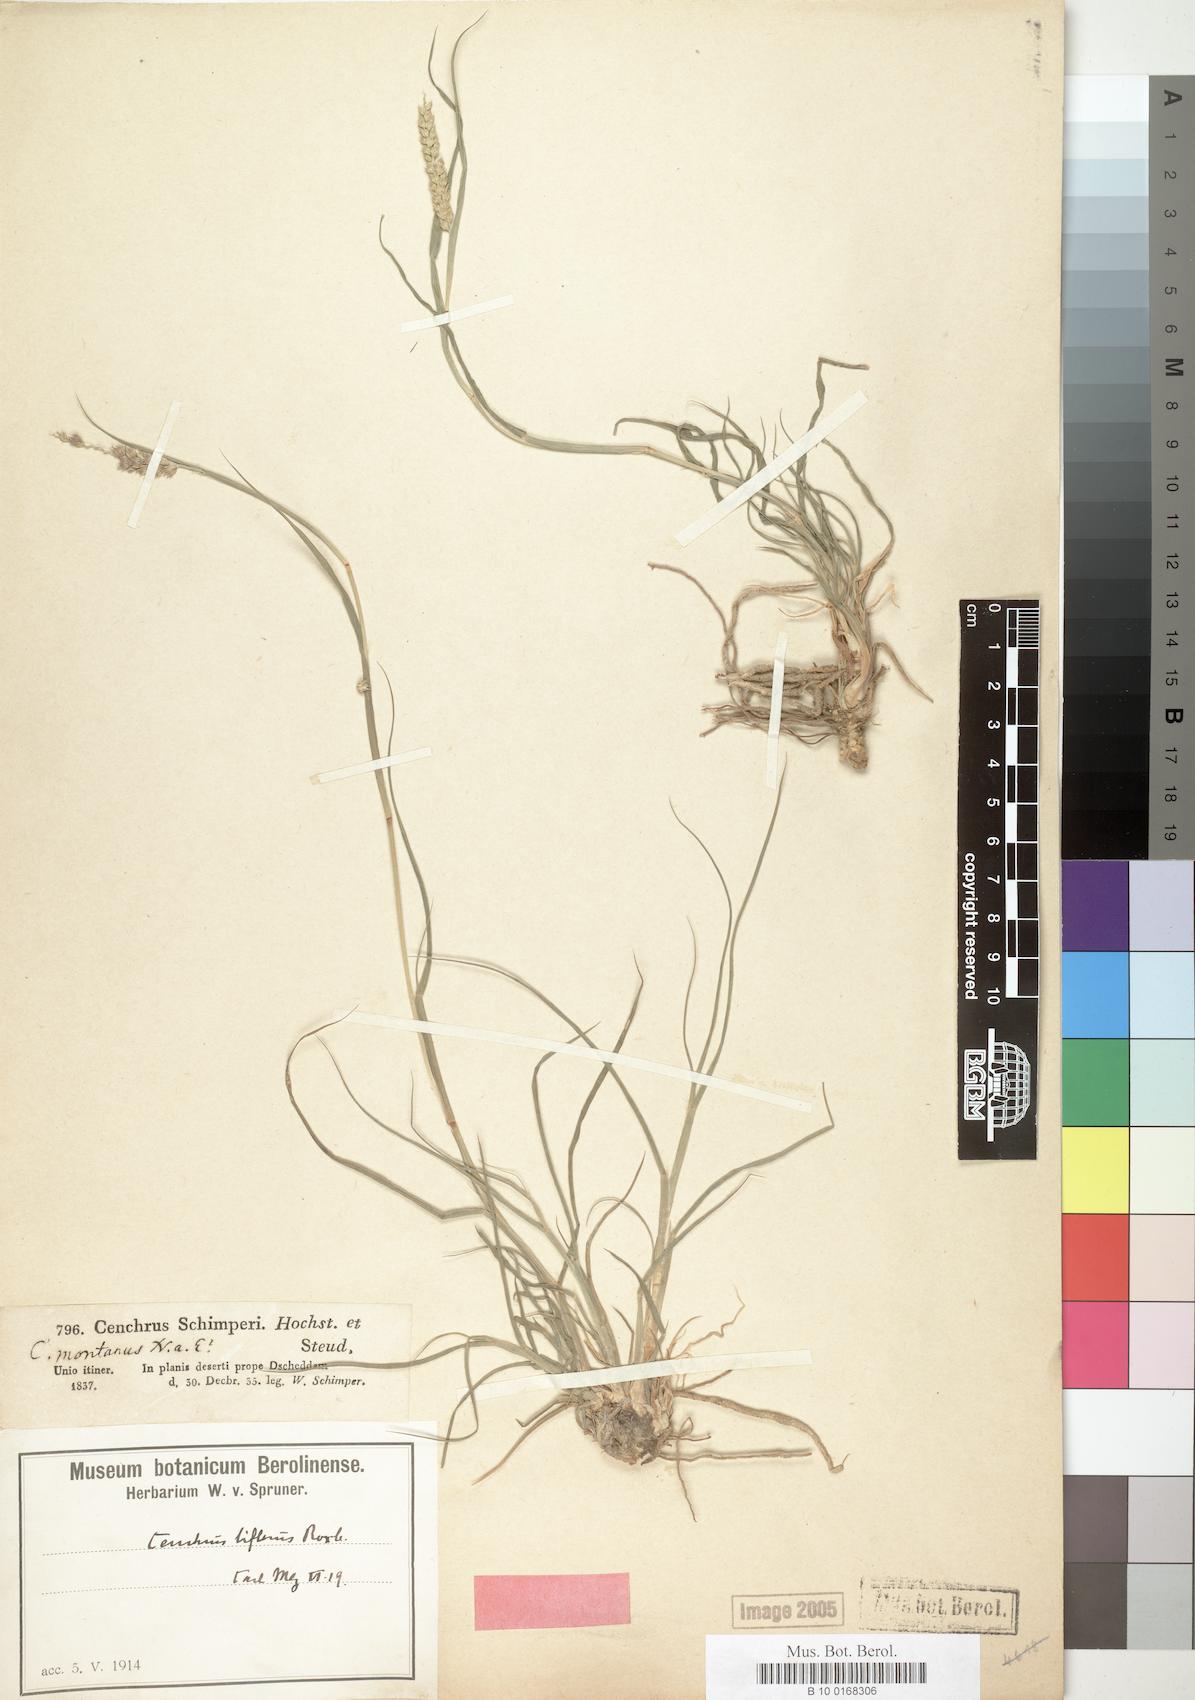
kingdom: Plantae
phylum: Tracheophyta
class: Liliopsida
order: Poales
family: Poaceae
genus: Cenchrus
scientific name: Cenchrus setigerus
